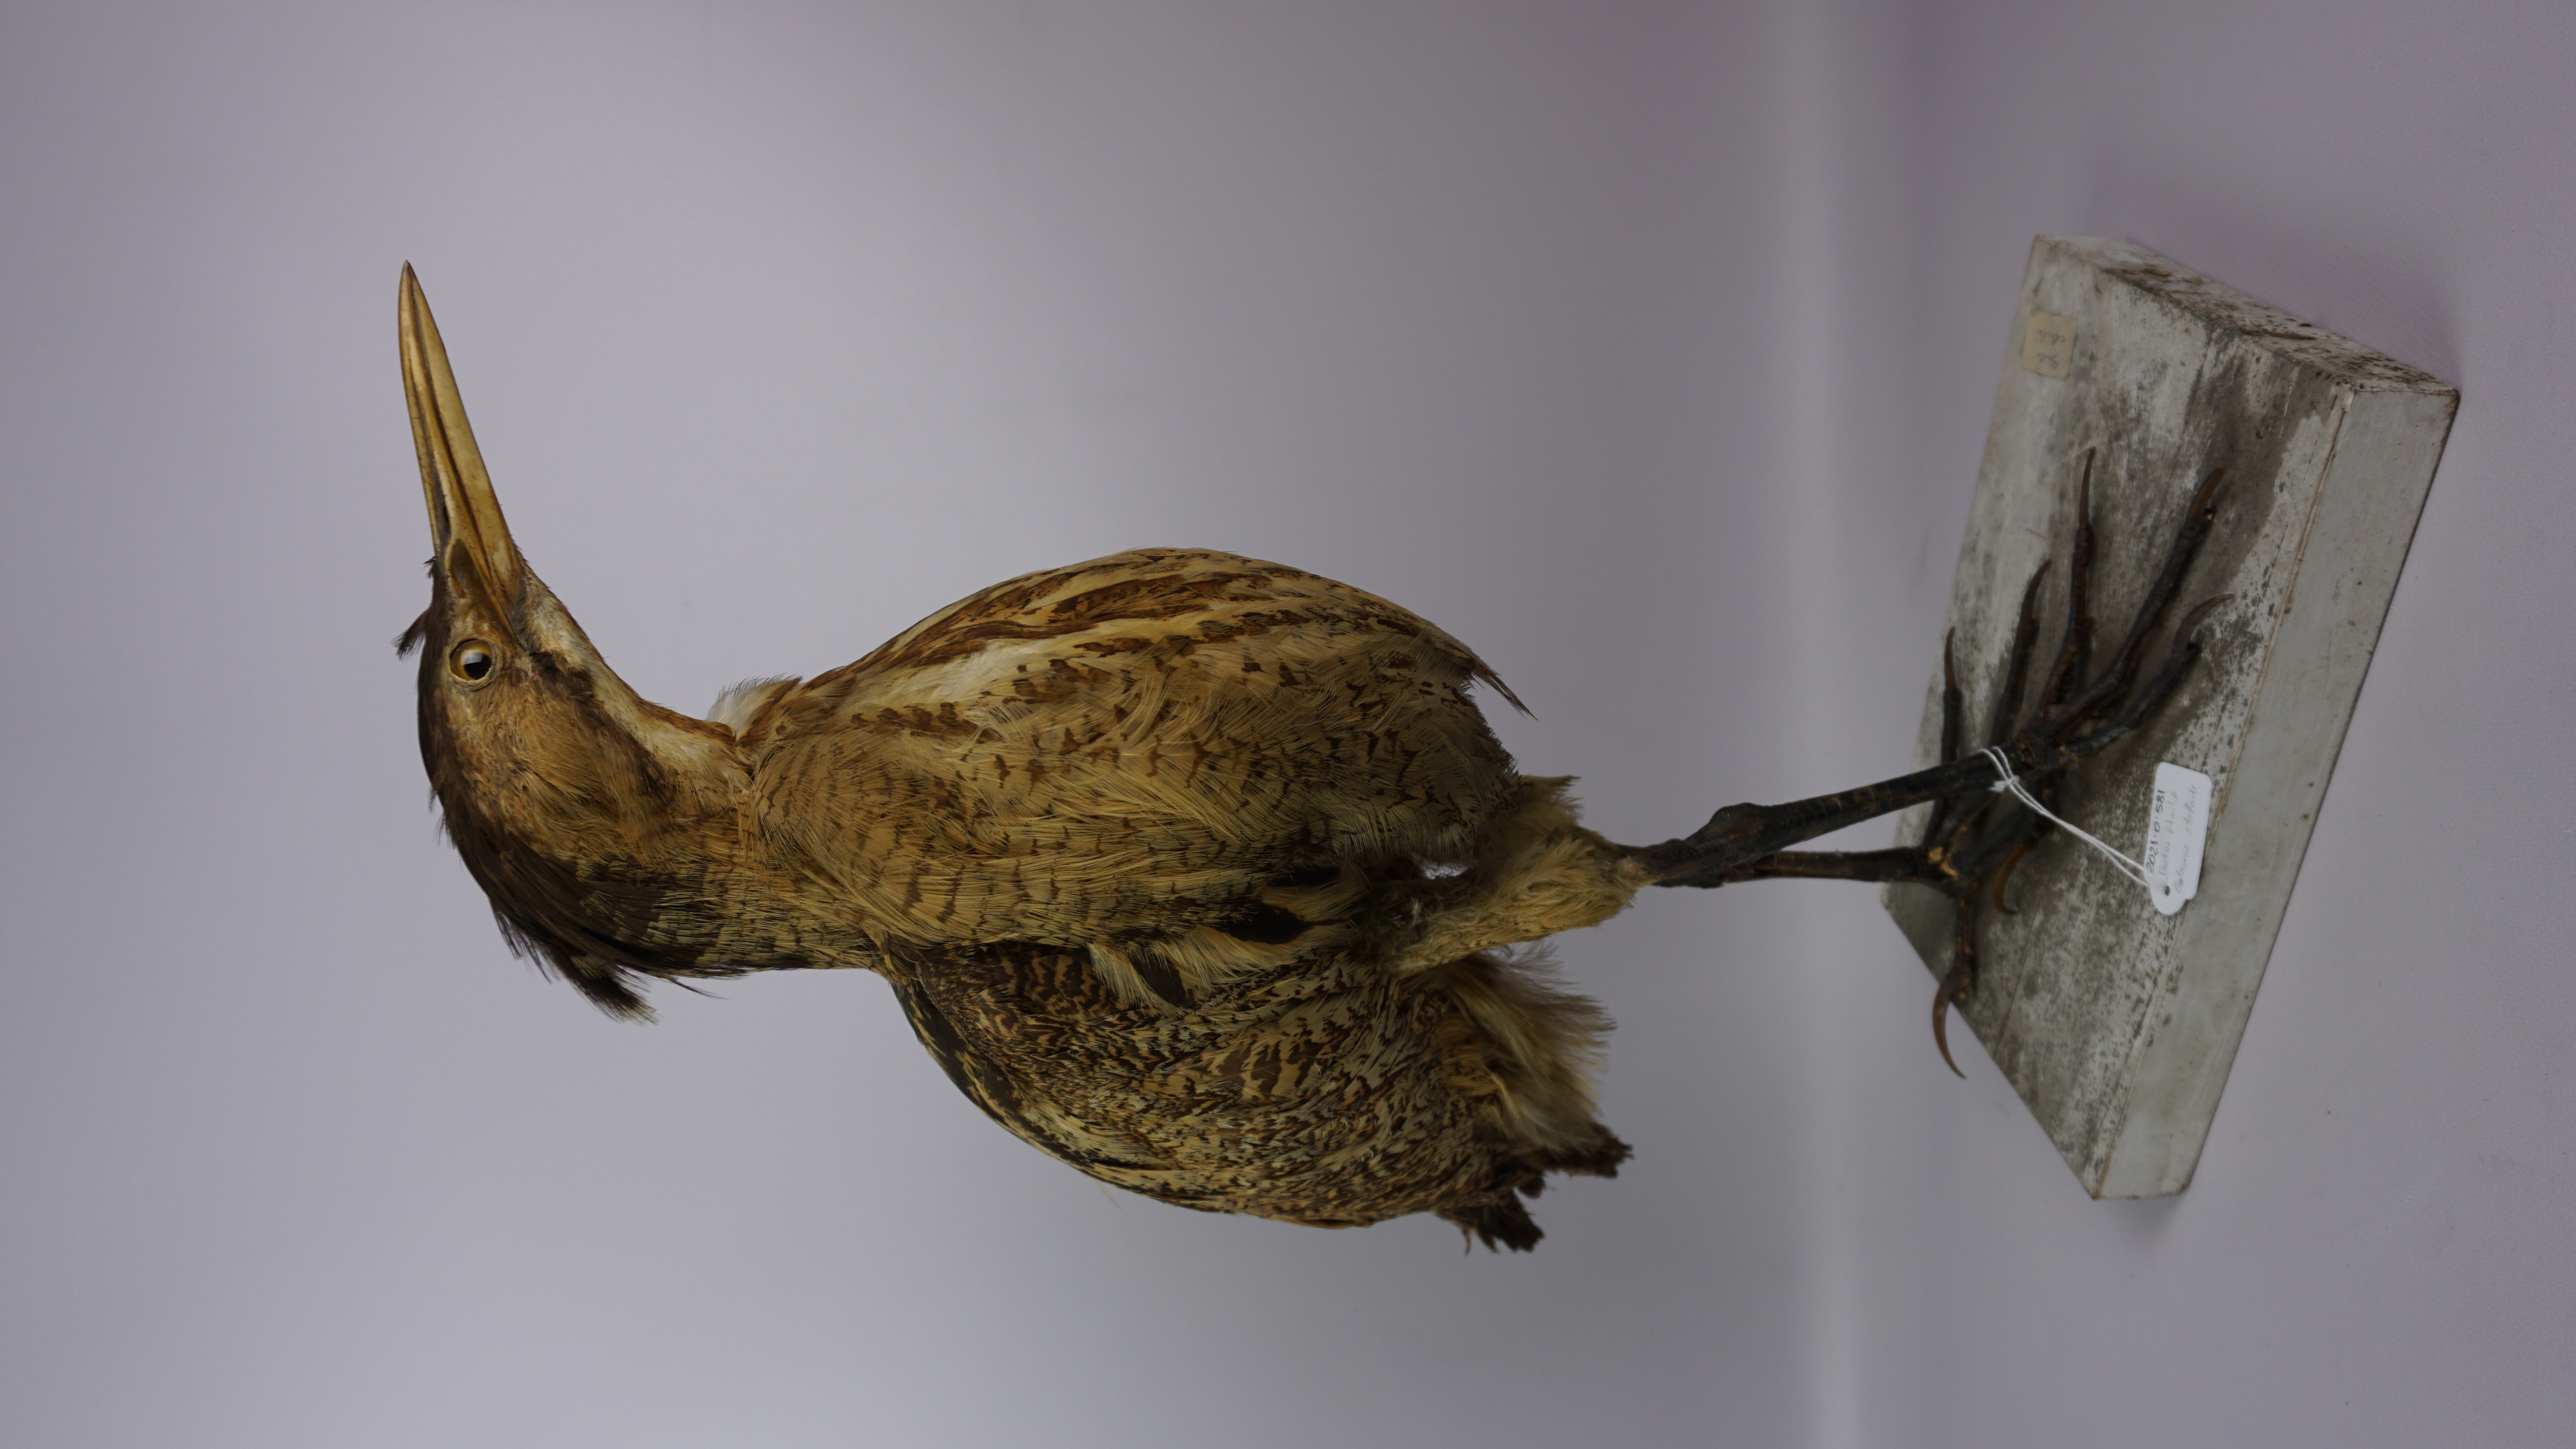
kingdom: Animalia
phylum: Chordata
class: Aves
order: Pelecaniformes
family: Ardeidae
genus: Botaurus
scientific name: Botaurus stellaris
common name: Eurasian bittern
